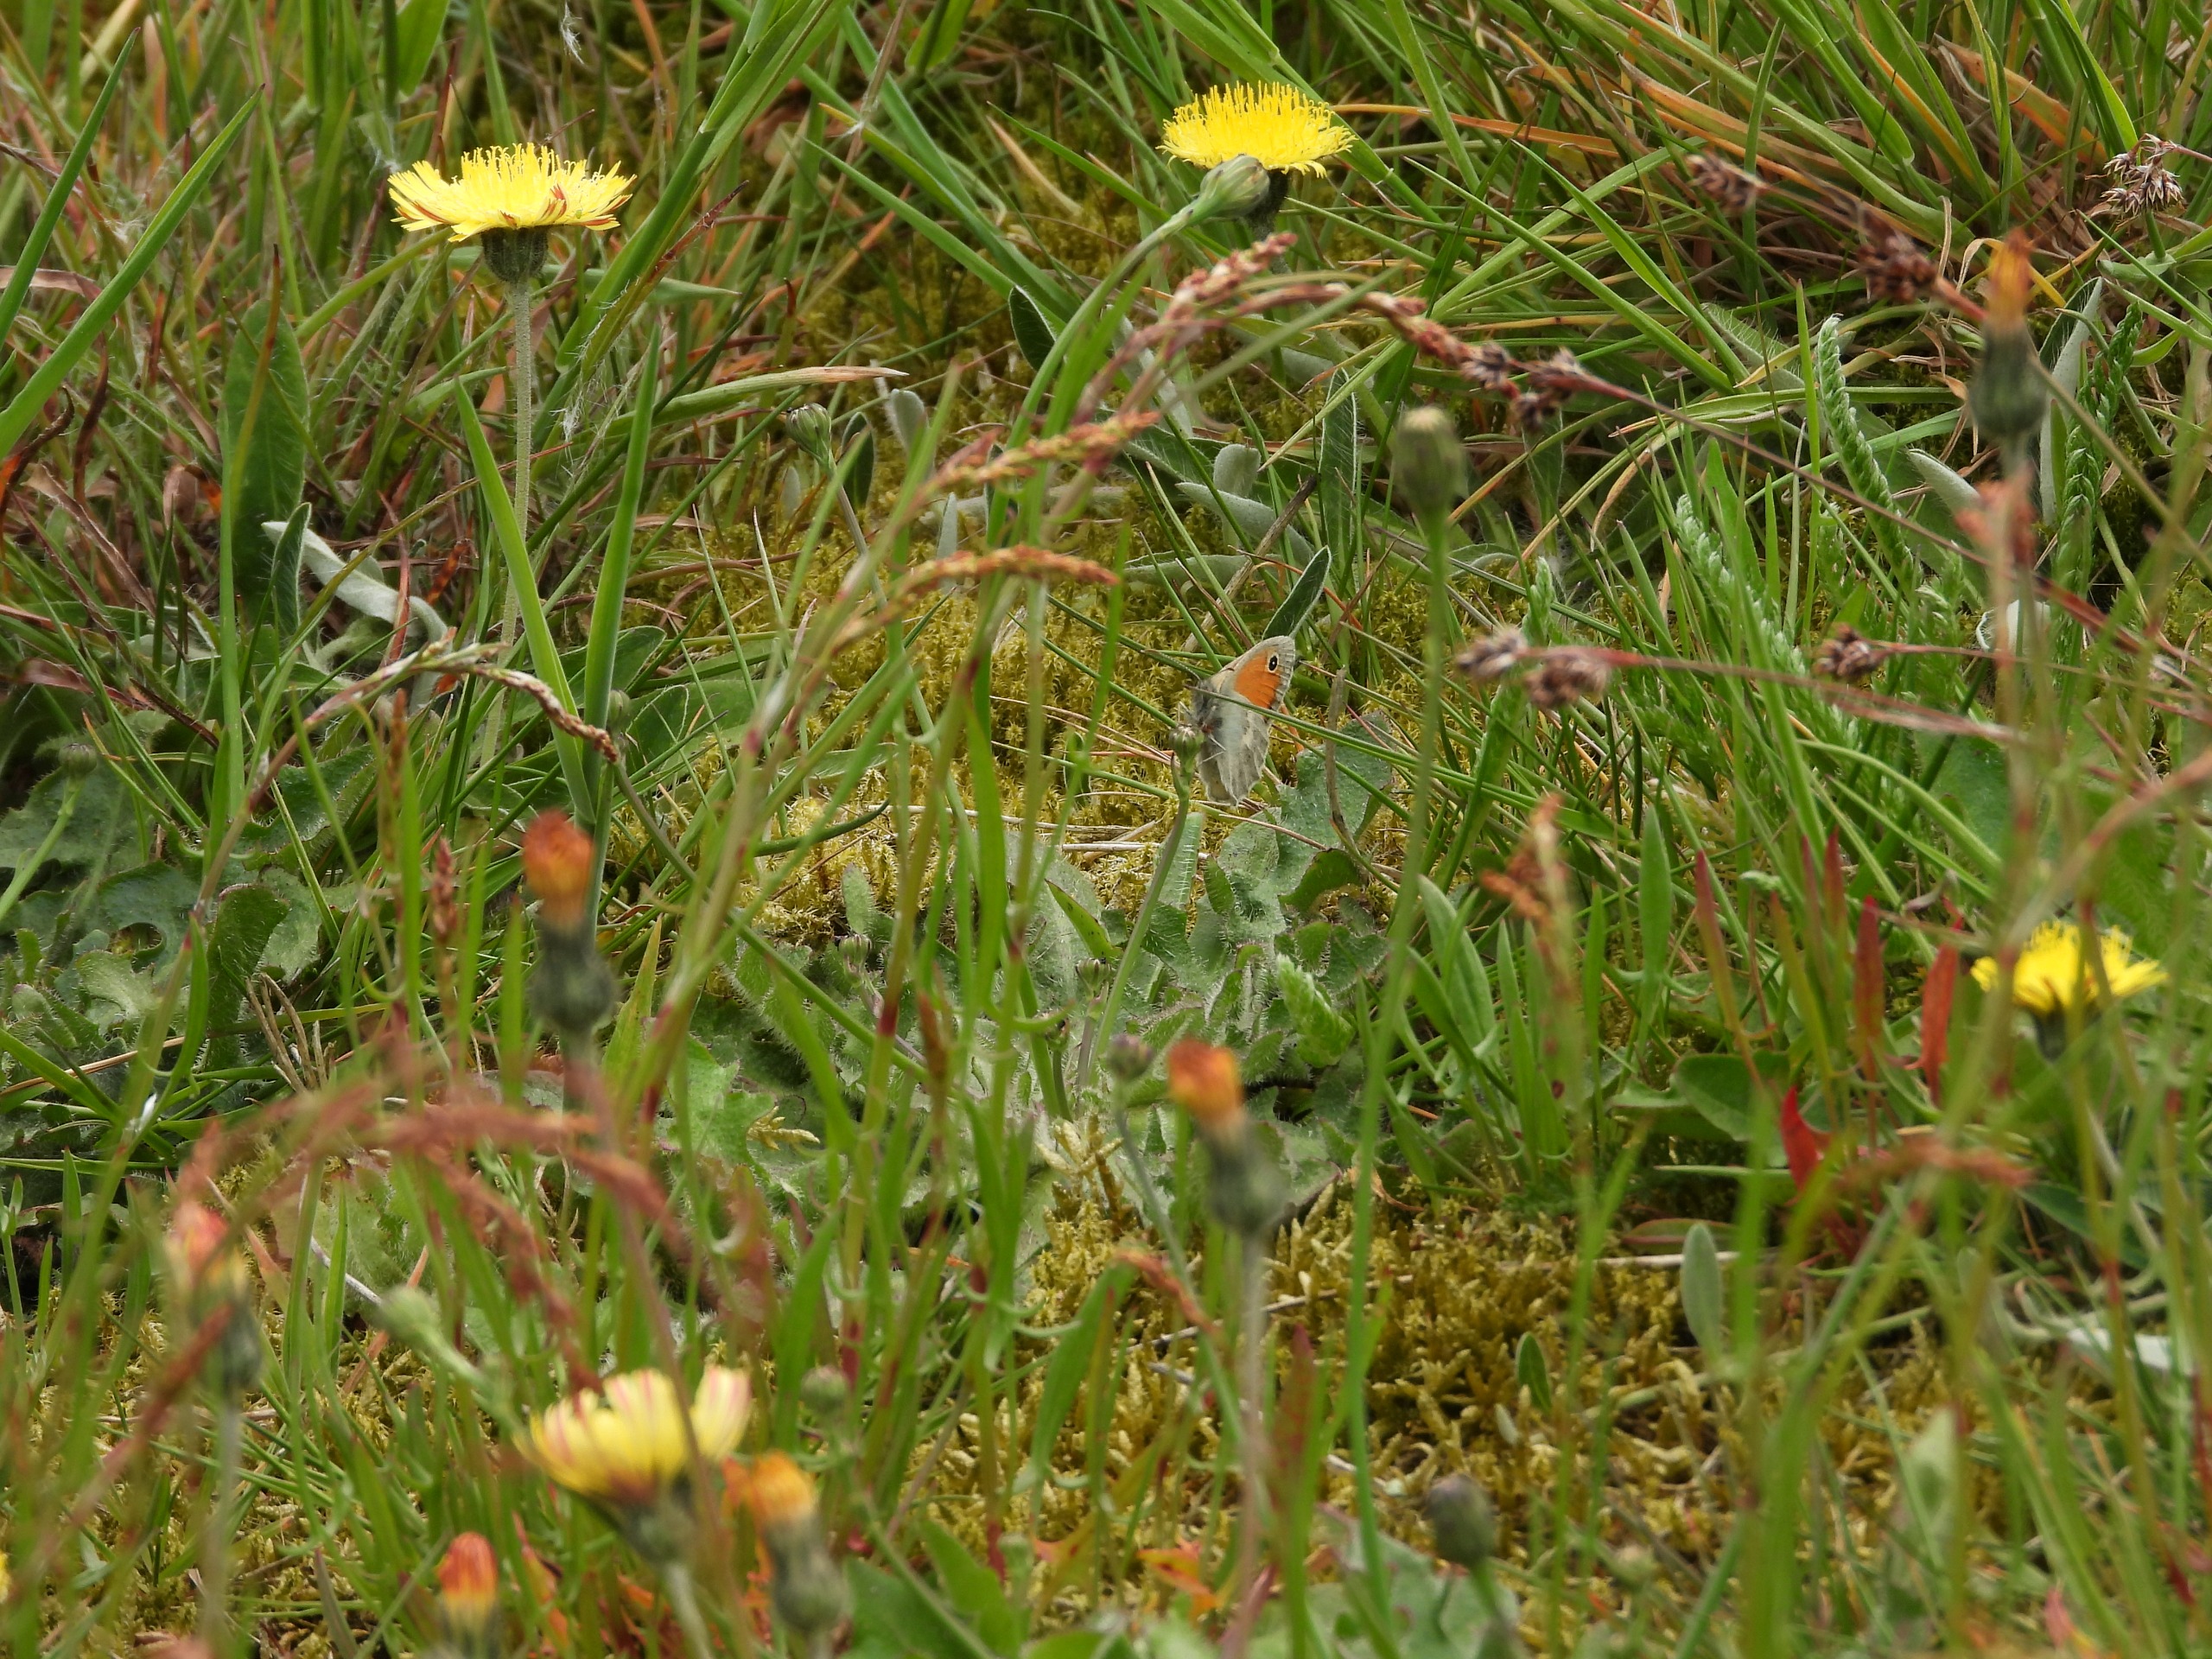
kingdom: Plantae
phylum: Tracheophyta
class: Magnoliopsida
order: Asterales
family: Asteraceae
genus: Pilosella
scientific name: Pilosella officinarum
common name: Håret høgeurt
